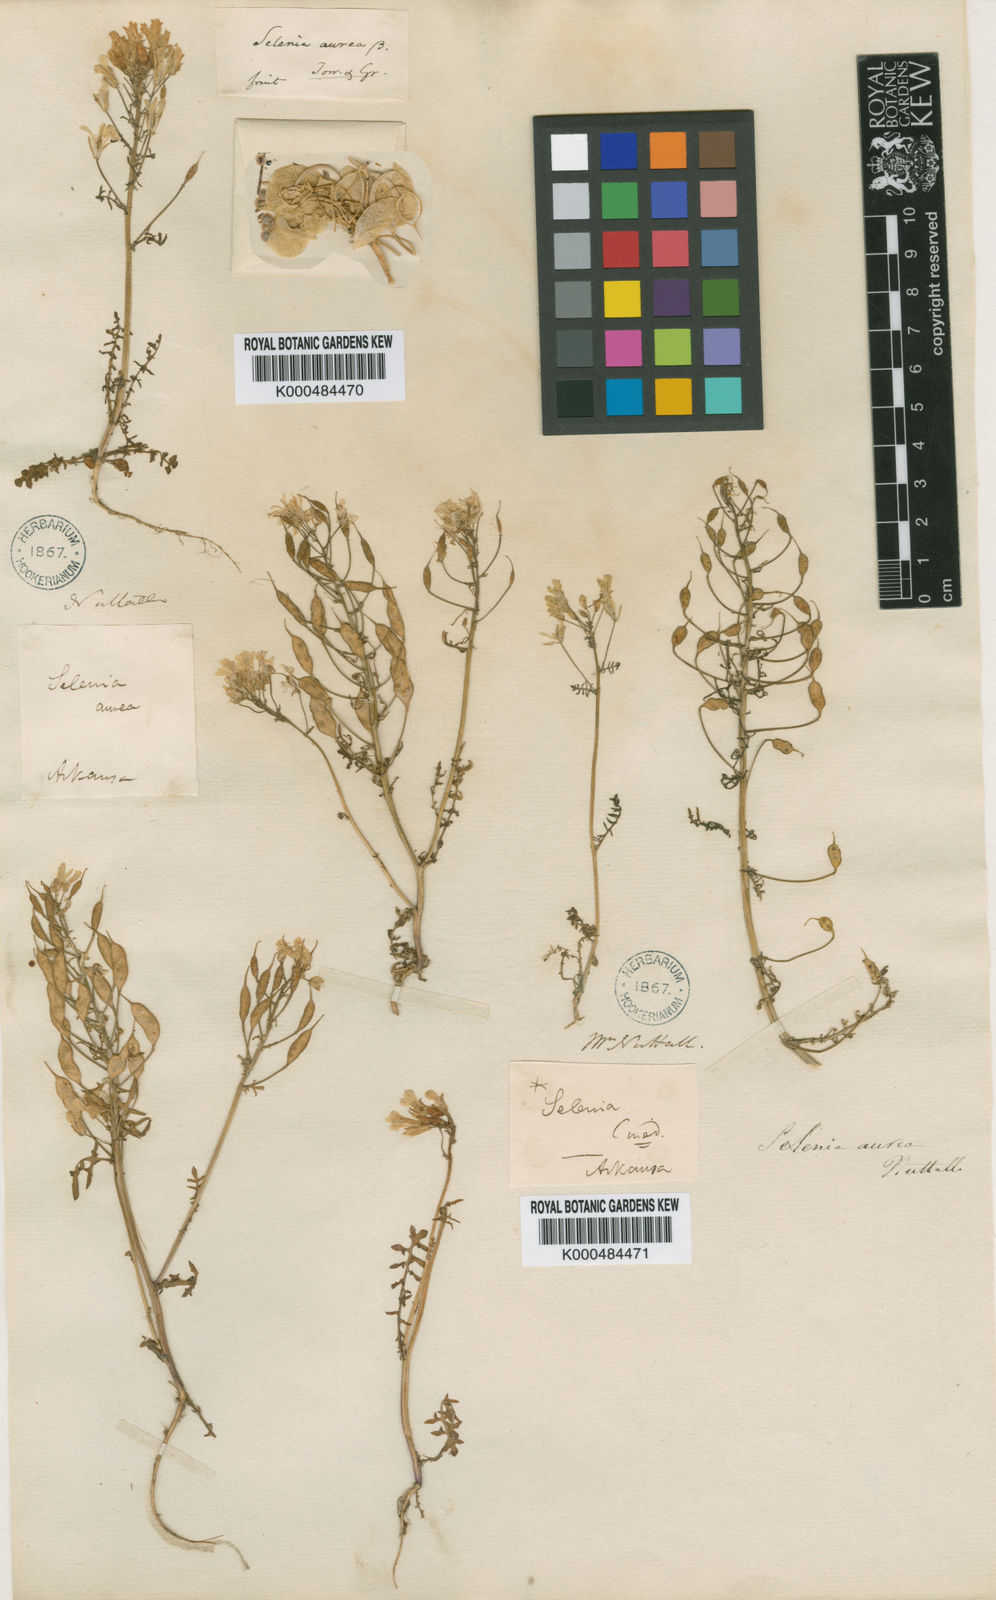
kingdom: Plantae
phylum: Tracheophyta
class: Magnoliopsida
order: Brassicales
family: Brassicaceae
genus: Selenia
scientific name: Selenia aurea
